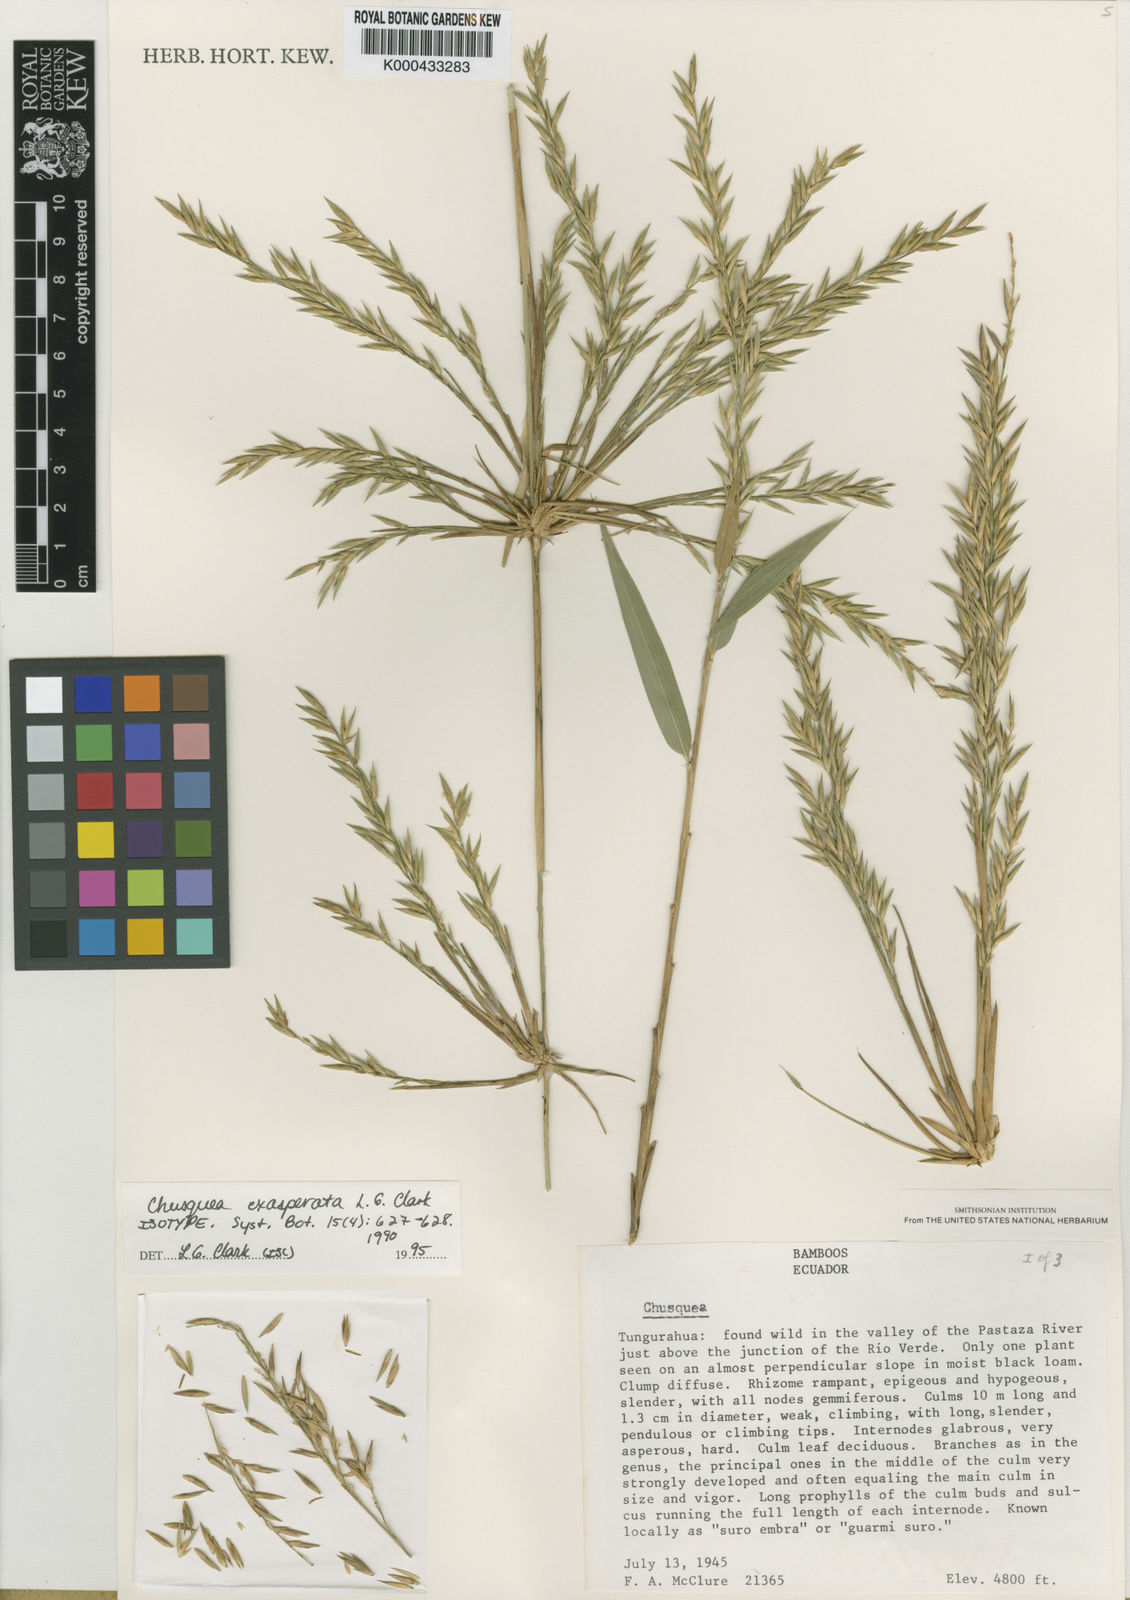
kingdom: Plantae
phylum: Tracheophyta
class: Liliopsida
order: Poales
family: Poaceae
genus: Chusquea
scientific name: Chusquea exasperata
